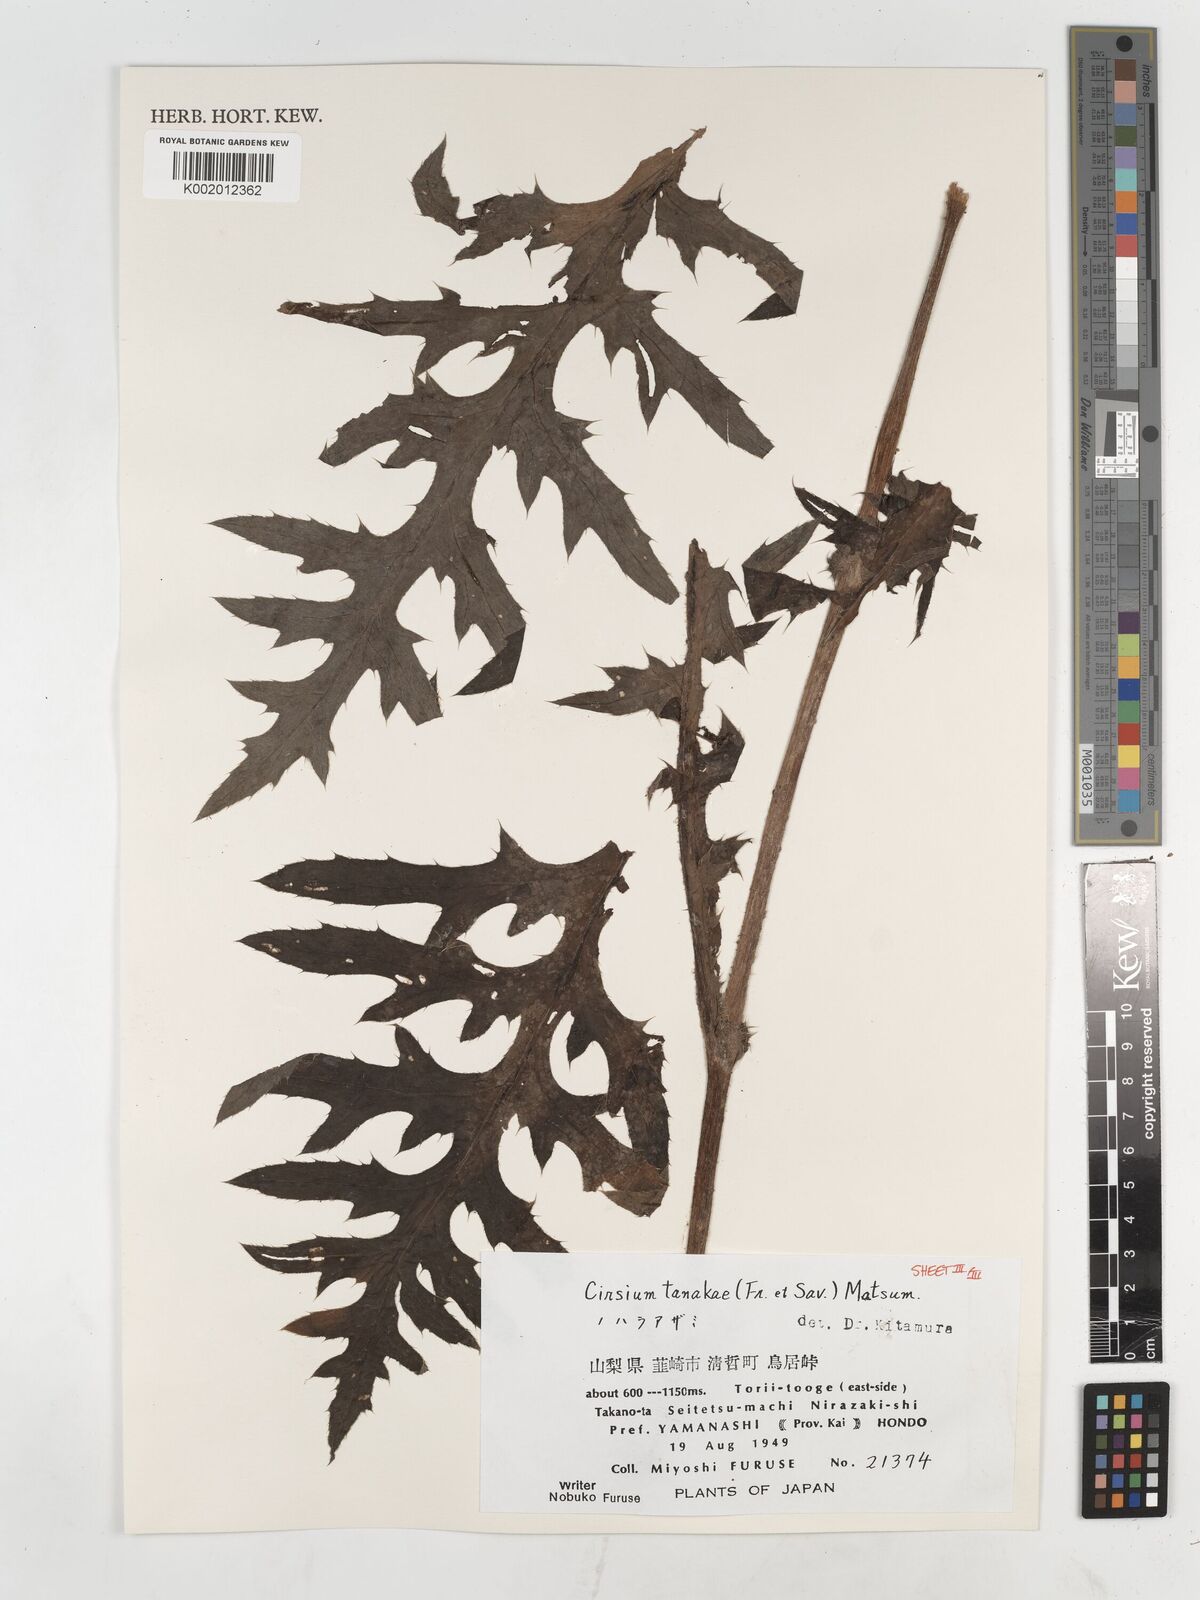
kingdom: Plantae
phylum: Tracheophyta
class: Magnoliopsida
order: Asterales
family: Asteraceae
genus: Cirsium
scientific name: Cirsium nipponicum
